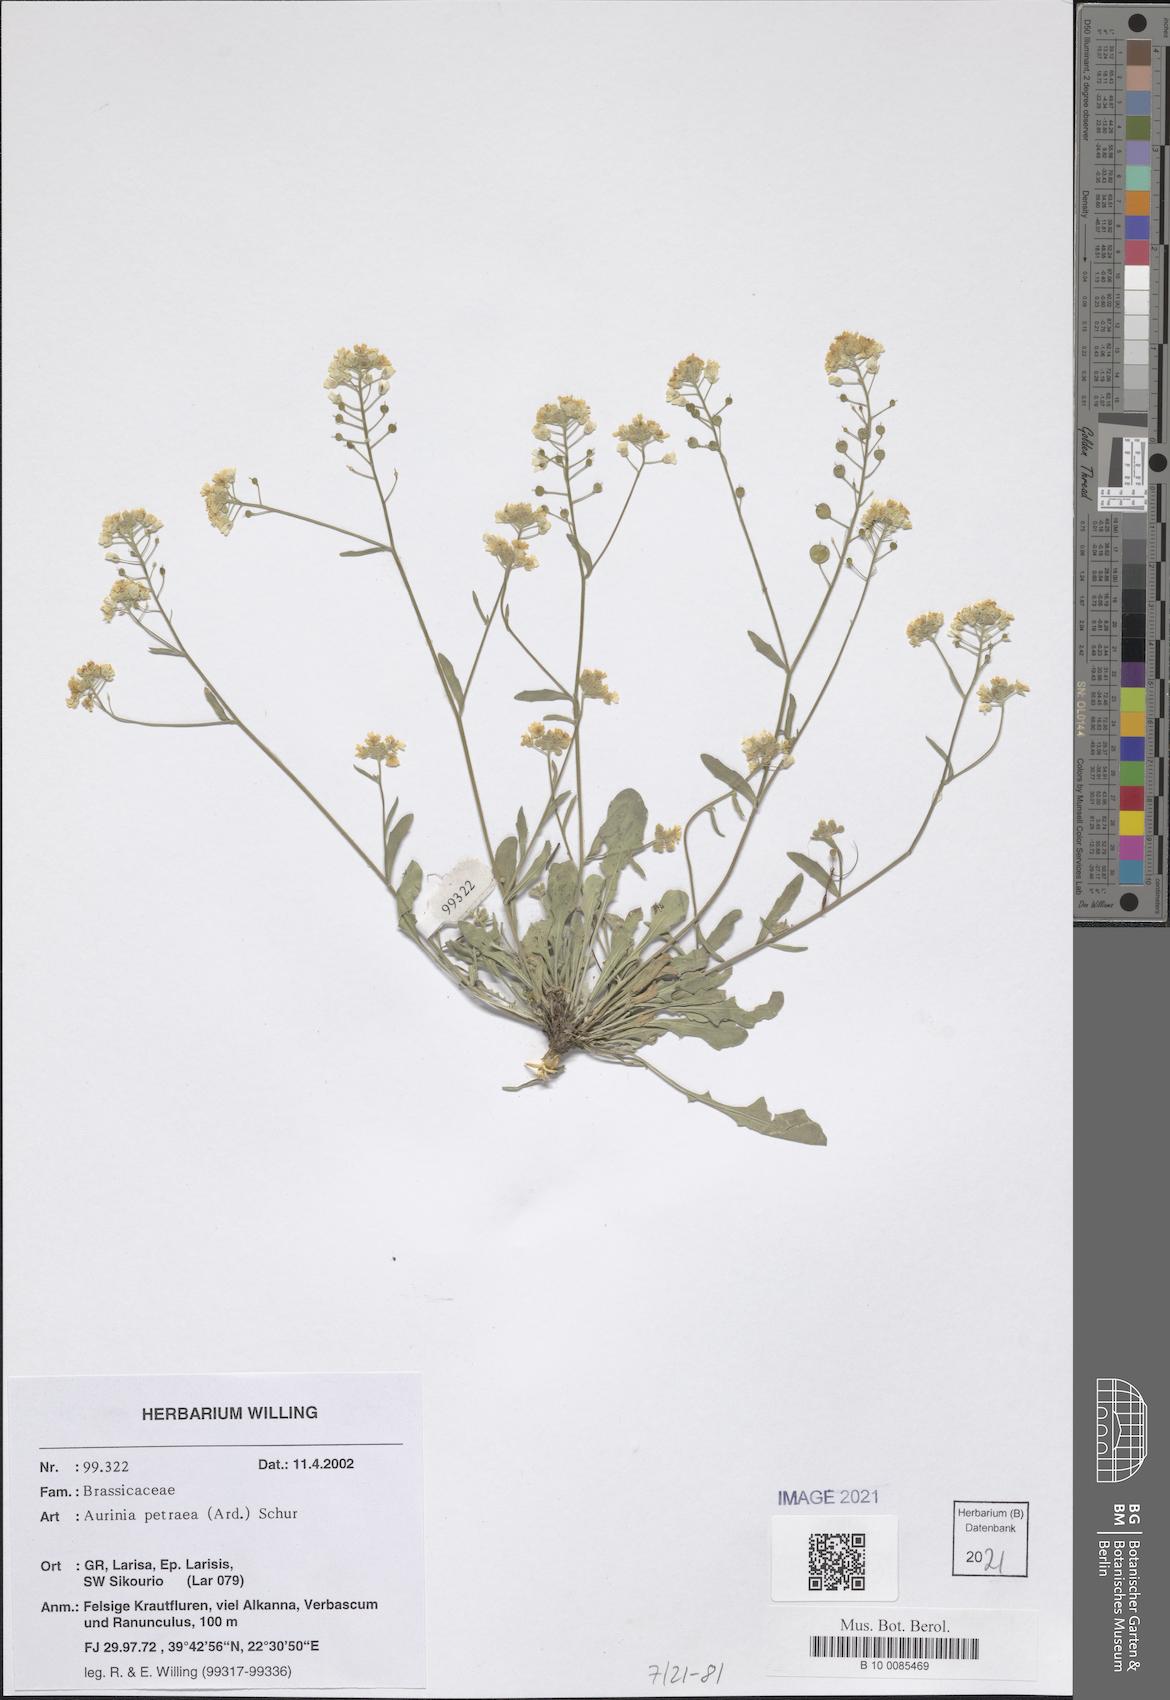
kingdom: Plantae
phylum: Tracheophyta
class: Magnoliopsida
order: Brassicales
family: Brassicaceae
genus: Aurinia
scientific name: Aurinia petraea
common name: Goldentuft
